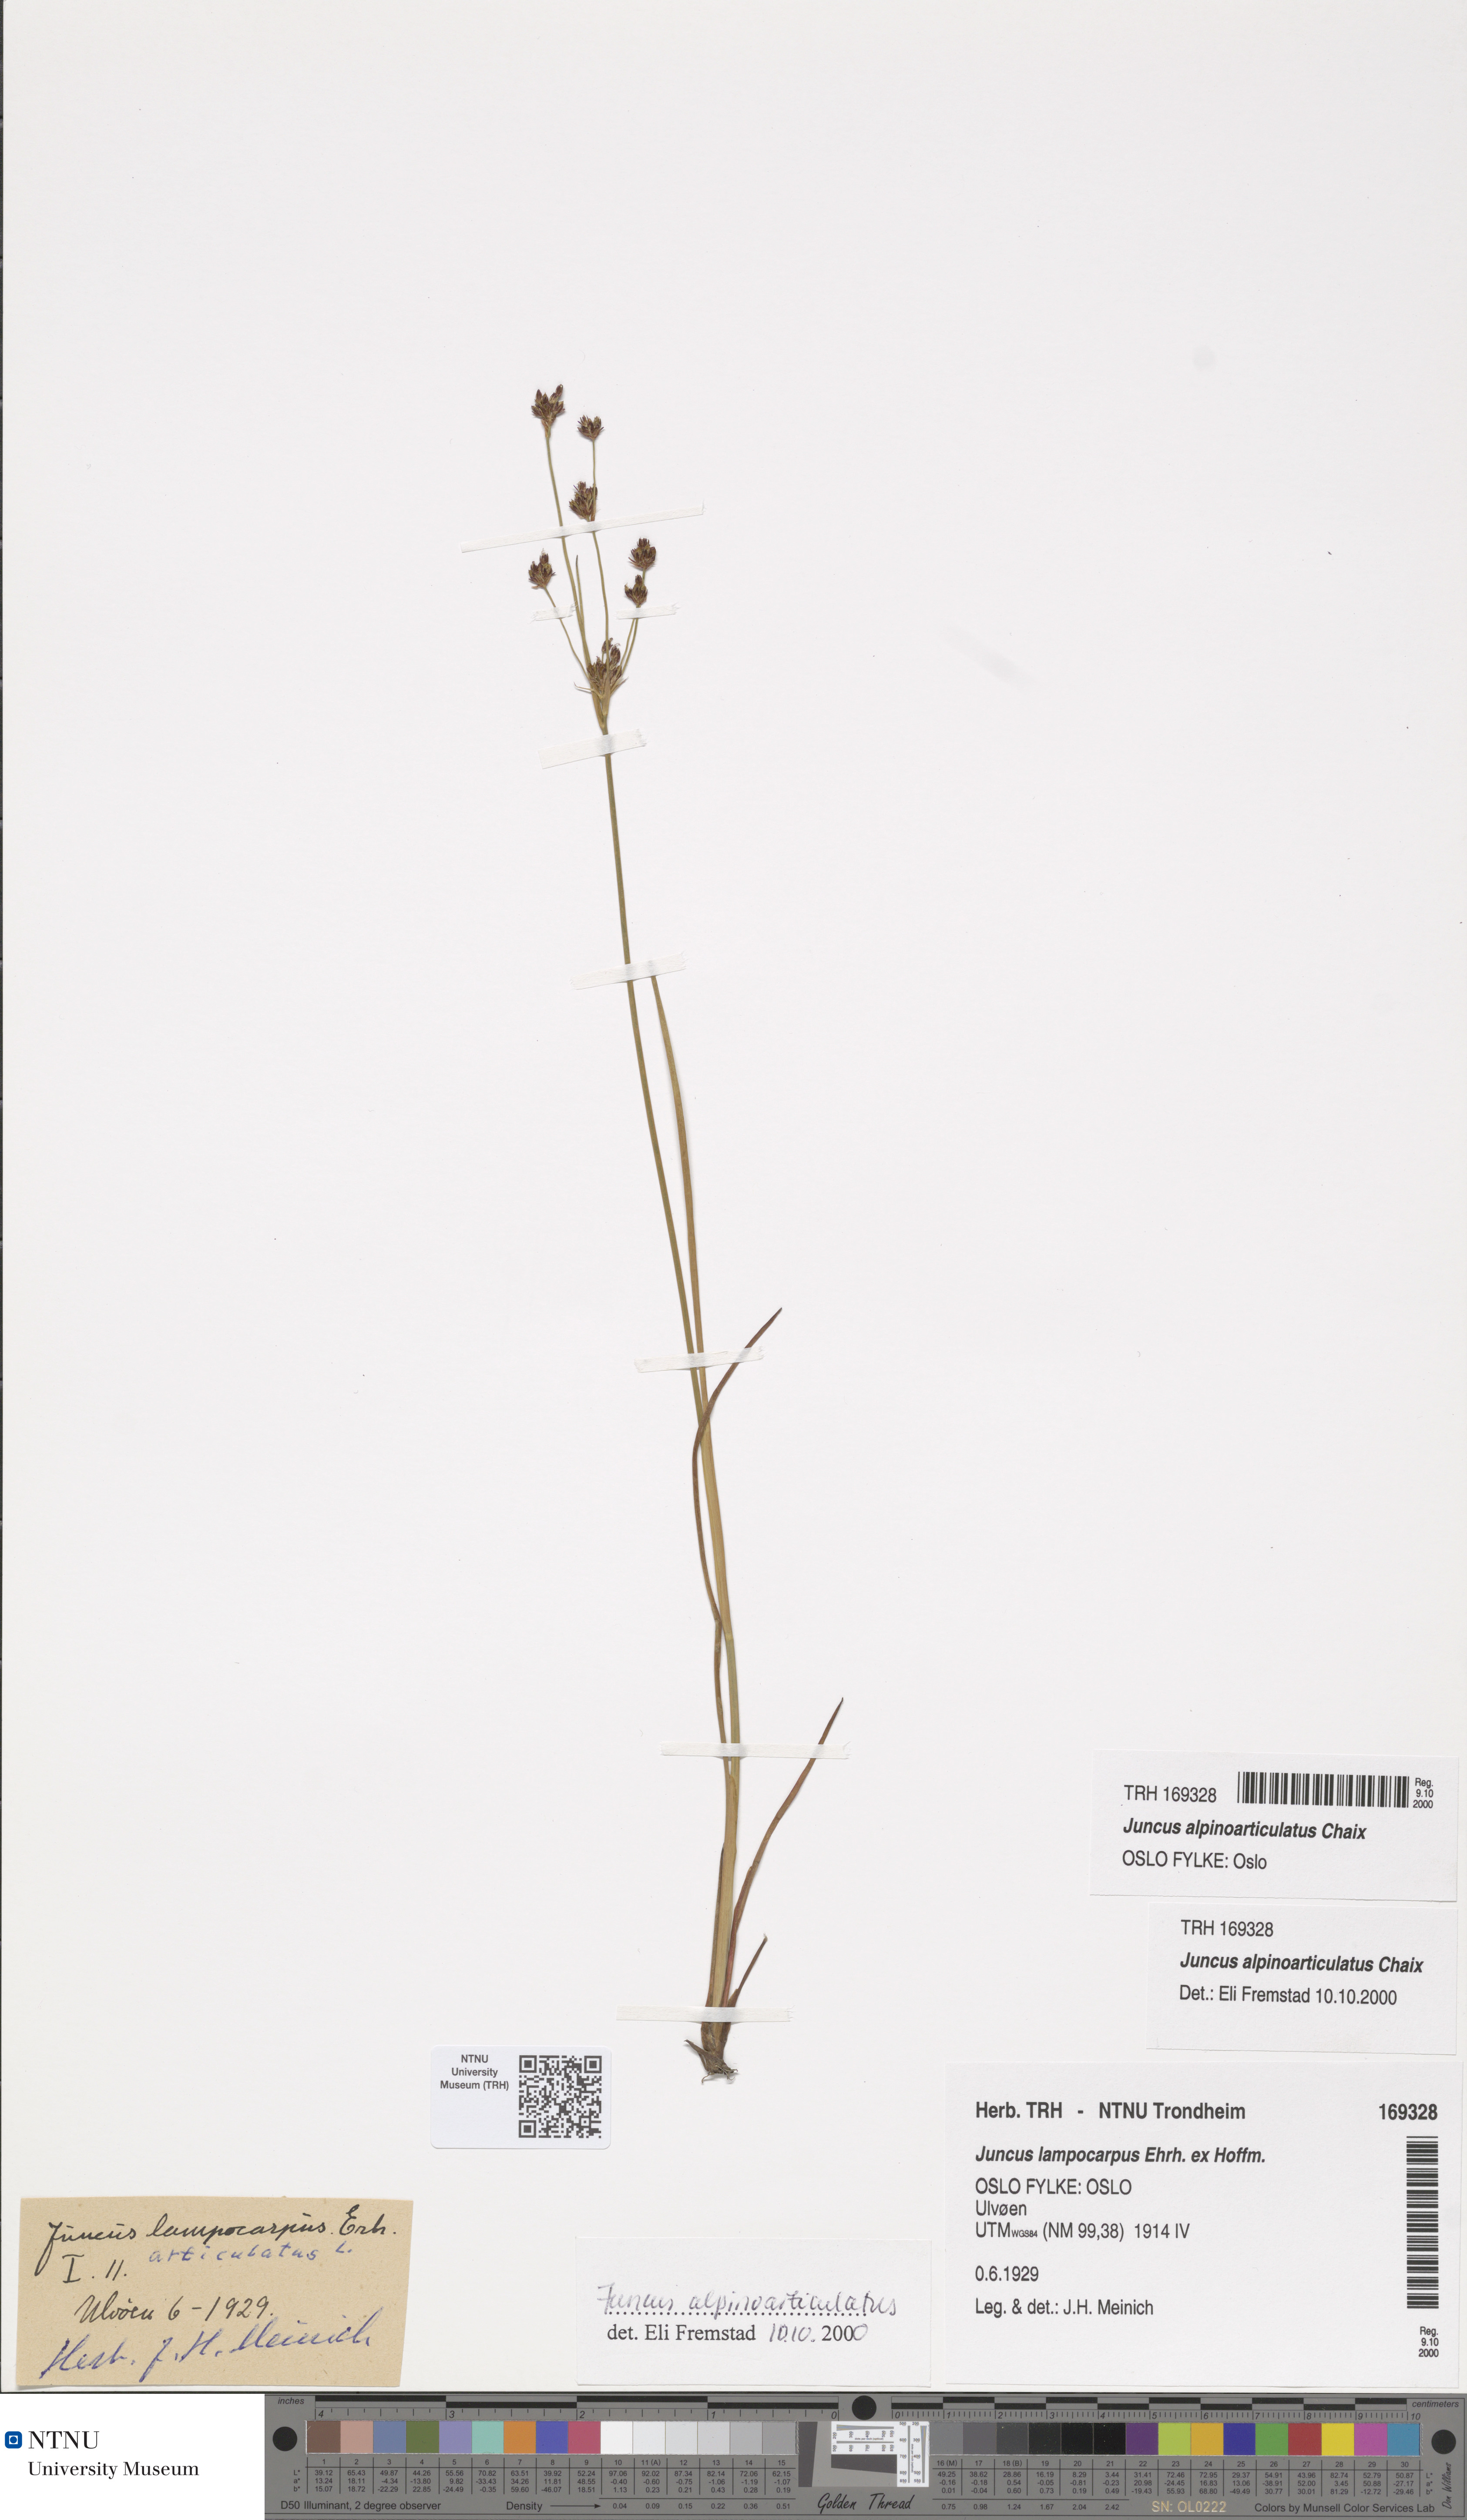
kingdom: Plantae
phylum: Tracheophyta
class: Liliopsida
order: Poales
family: Juncaceae
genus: Juncus
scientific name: Juncus alpinoarticulatus
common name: Alpine rush
